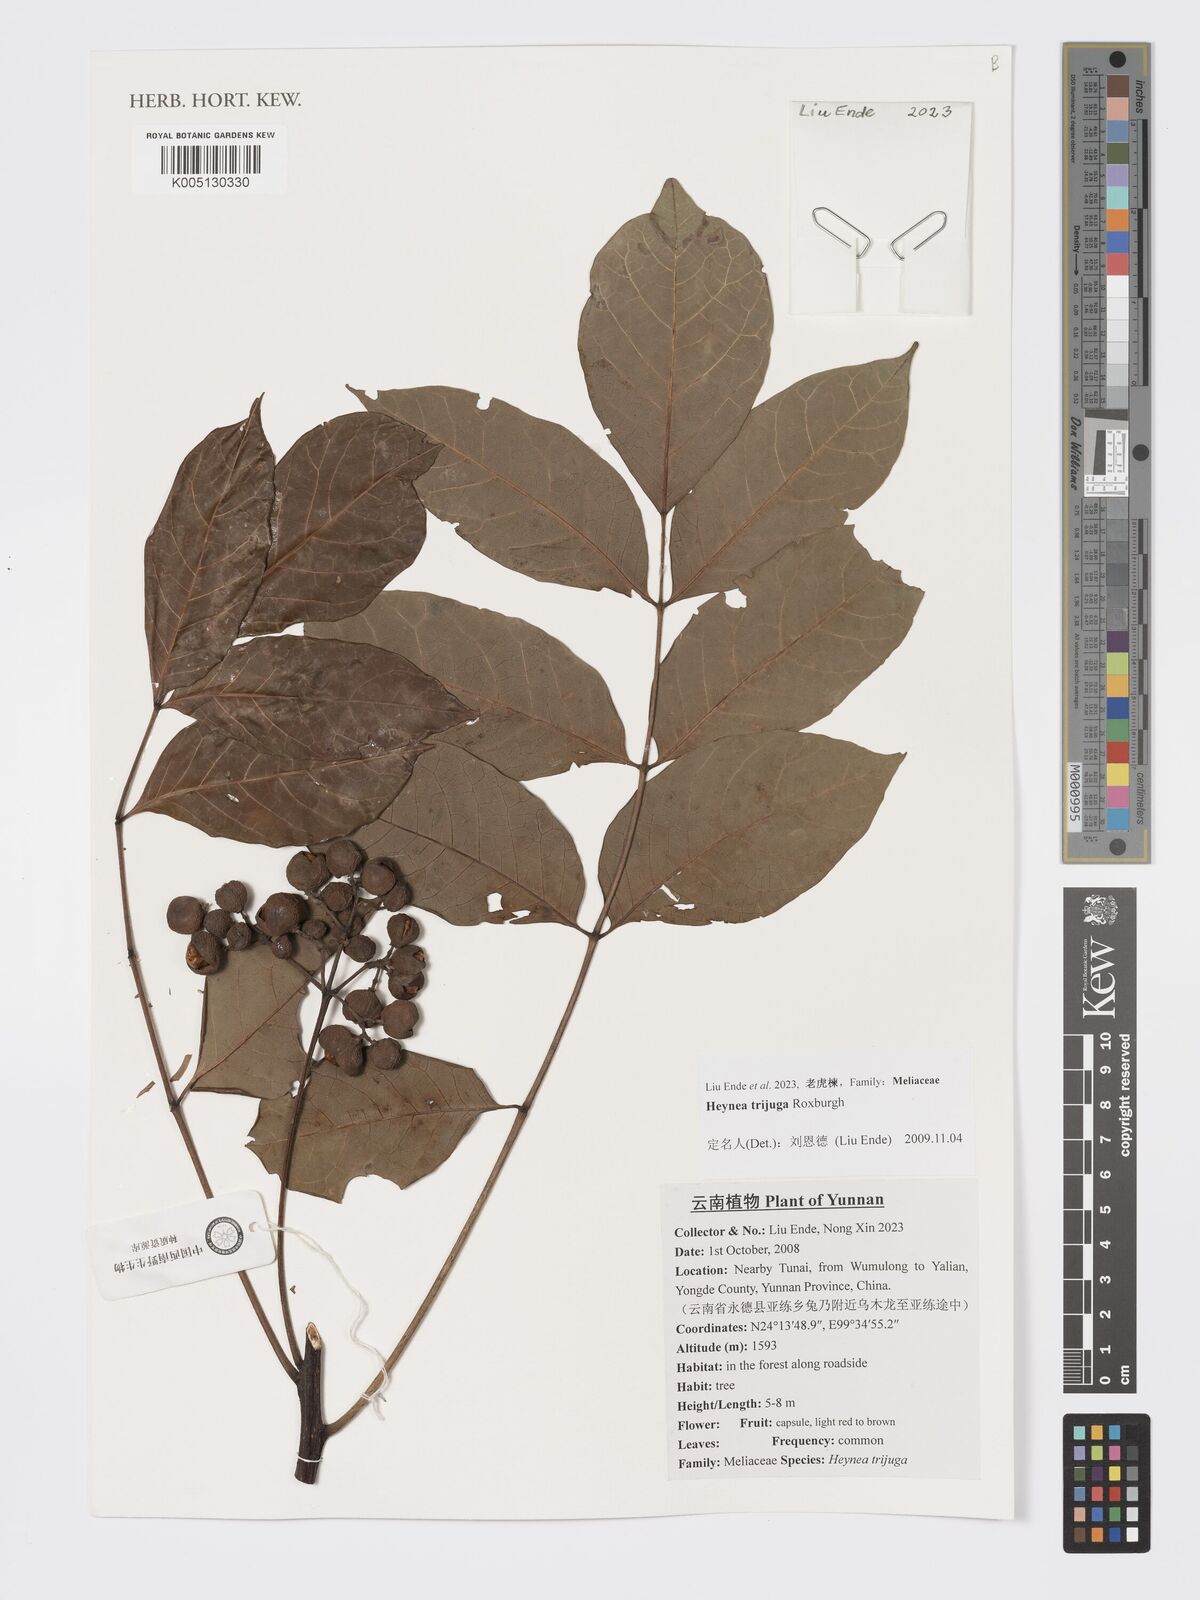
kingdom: Plantae
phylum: Tracheophyta
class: Magnoliopsida
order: Sapindales
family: Meliaceae
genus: Heynea
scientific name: Heynea trijuga
